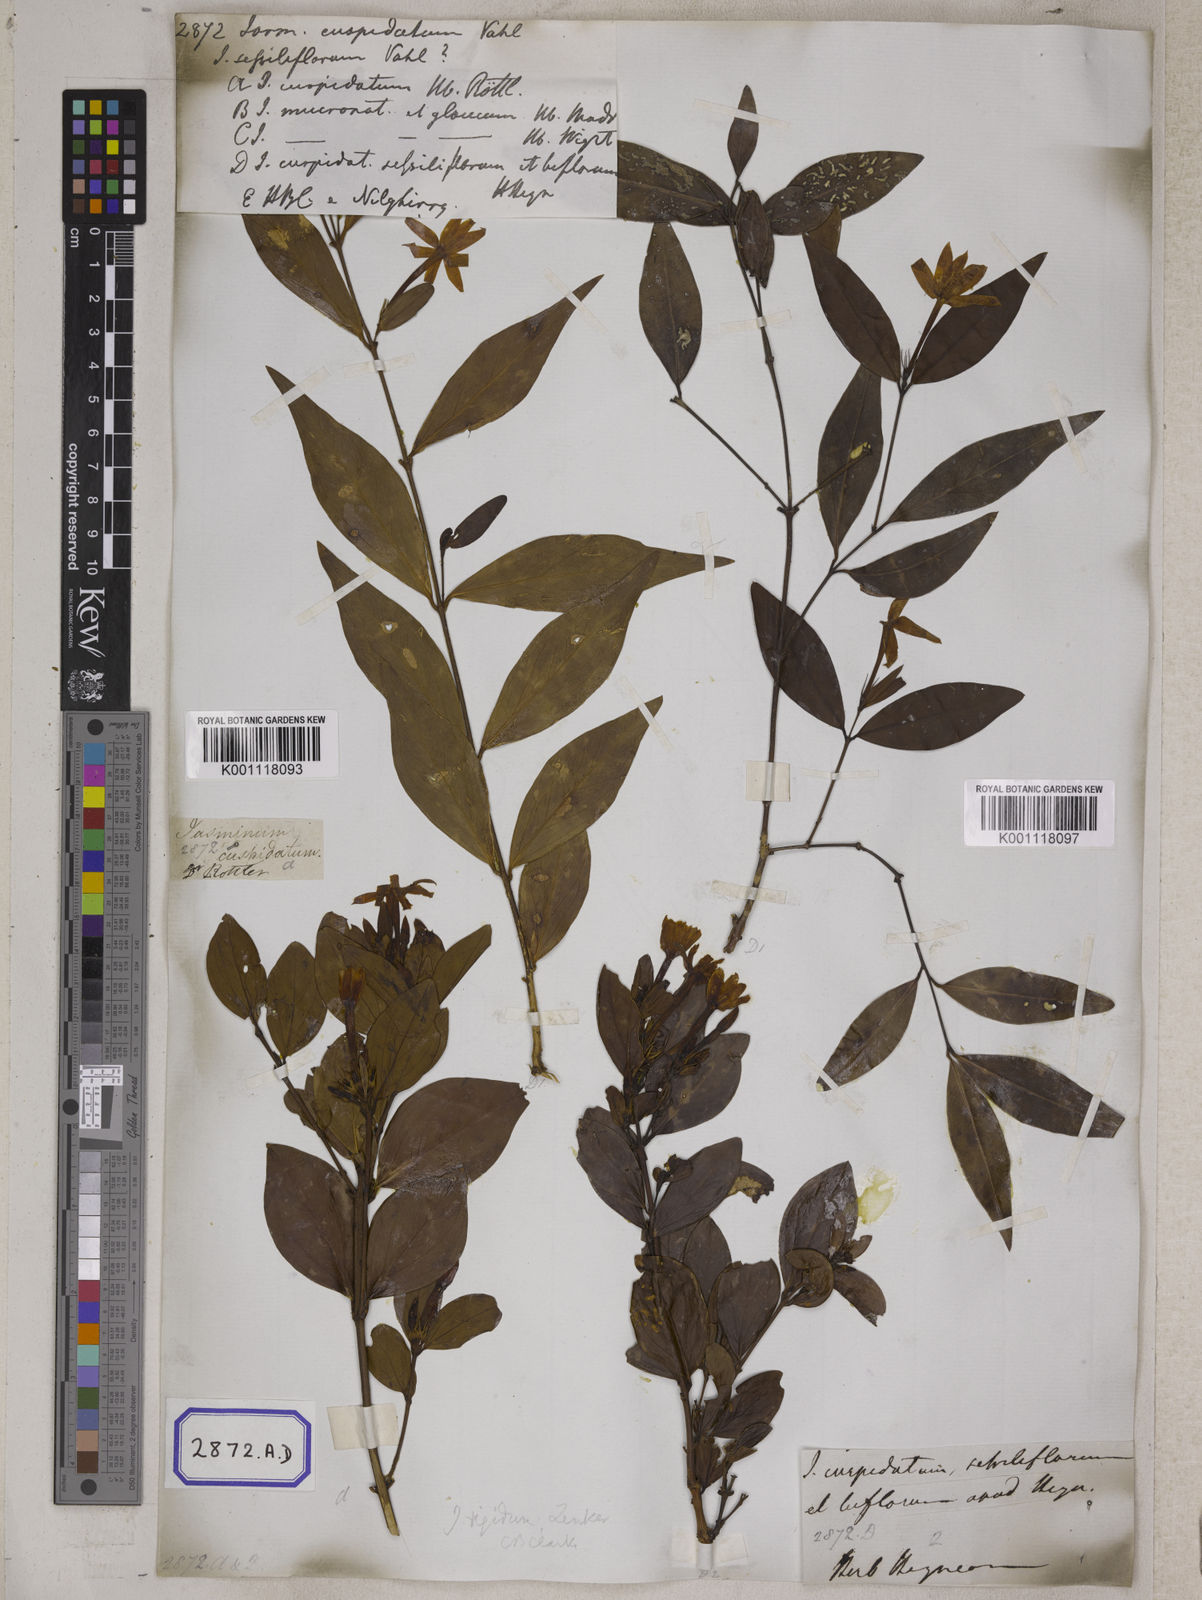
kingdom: Plantae
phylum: Tracheophyta
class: Magnoliopsida
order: Lamiales
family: Oleaceae
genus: Jasminum
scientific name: Jasminum
